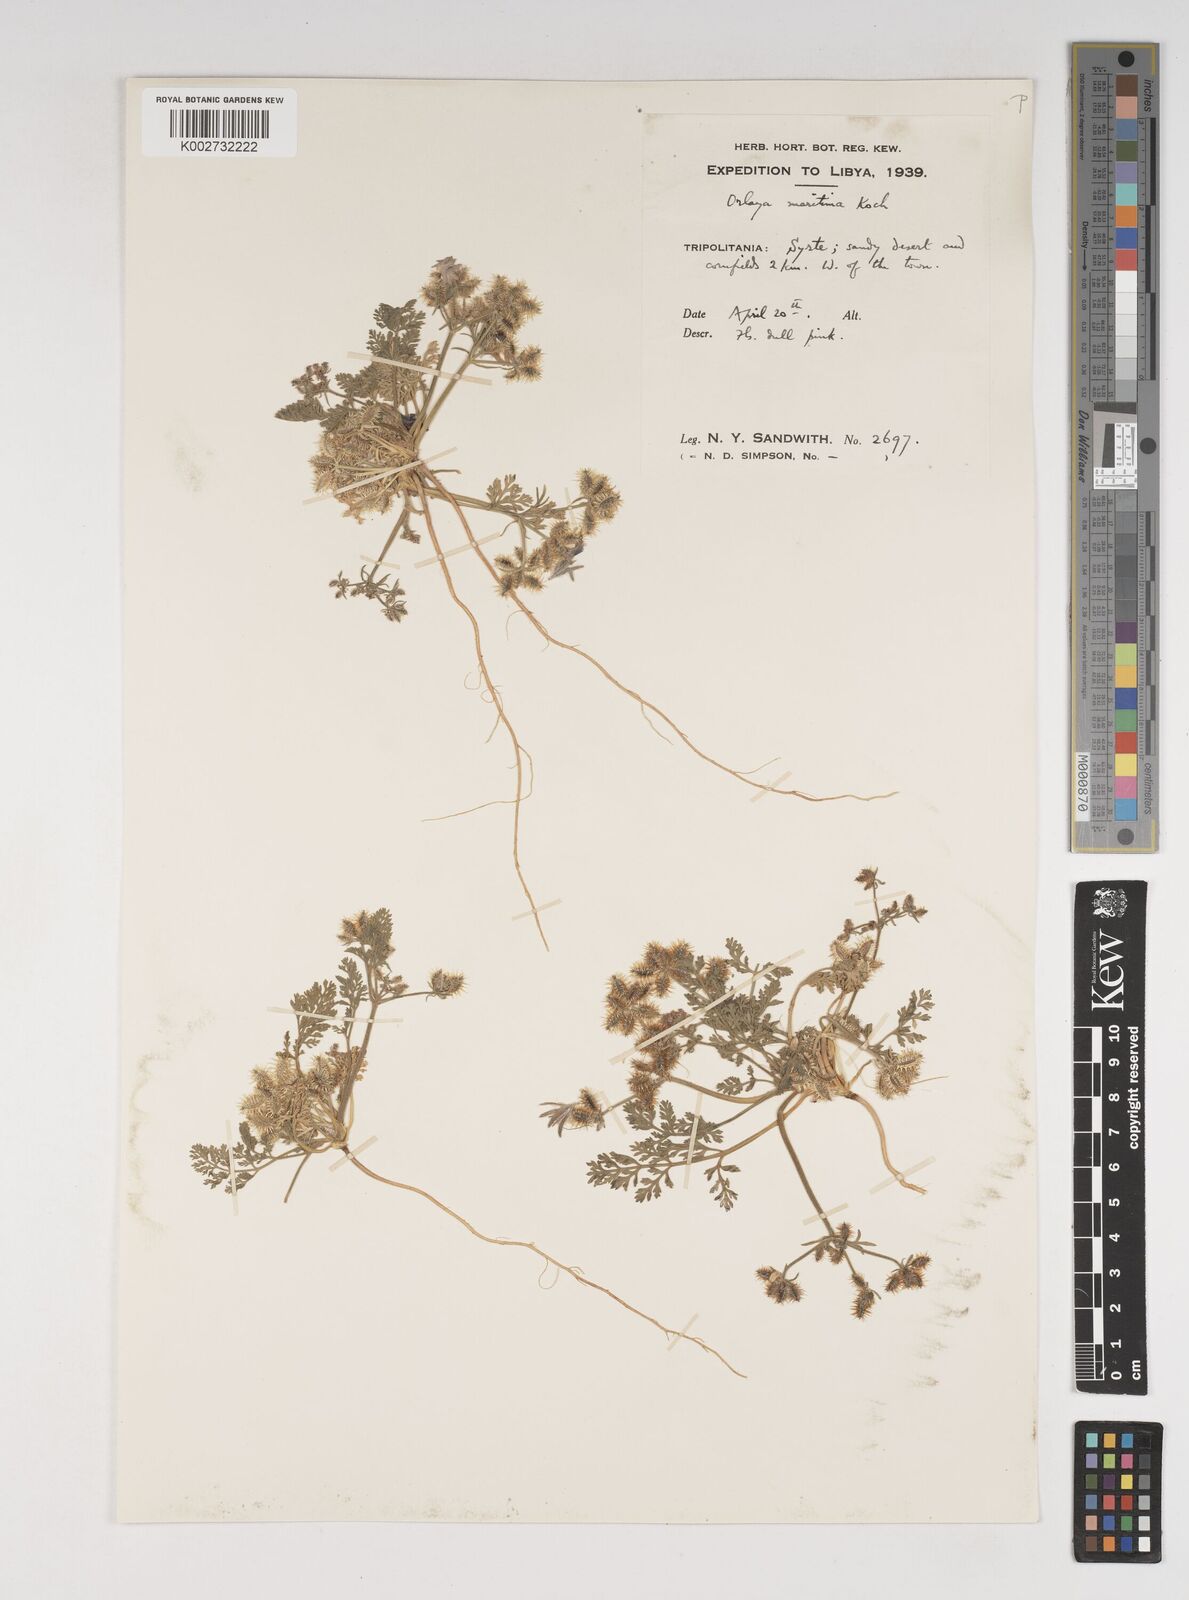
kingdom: Plantae
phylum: Tracheophyta
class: Magnoliopsida
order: Apiales
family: Apiaceae
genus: Daucus
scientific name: Daucus pumilus
